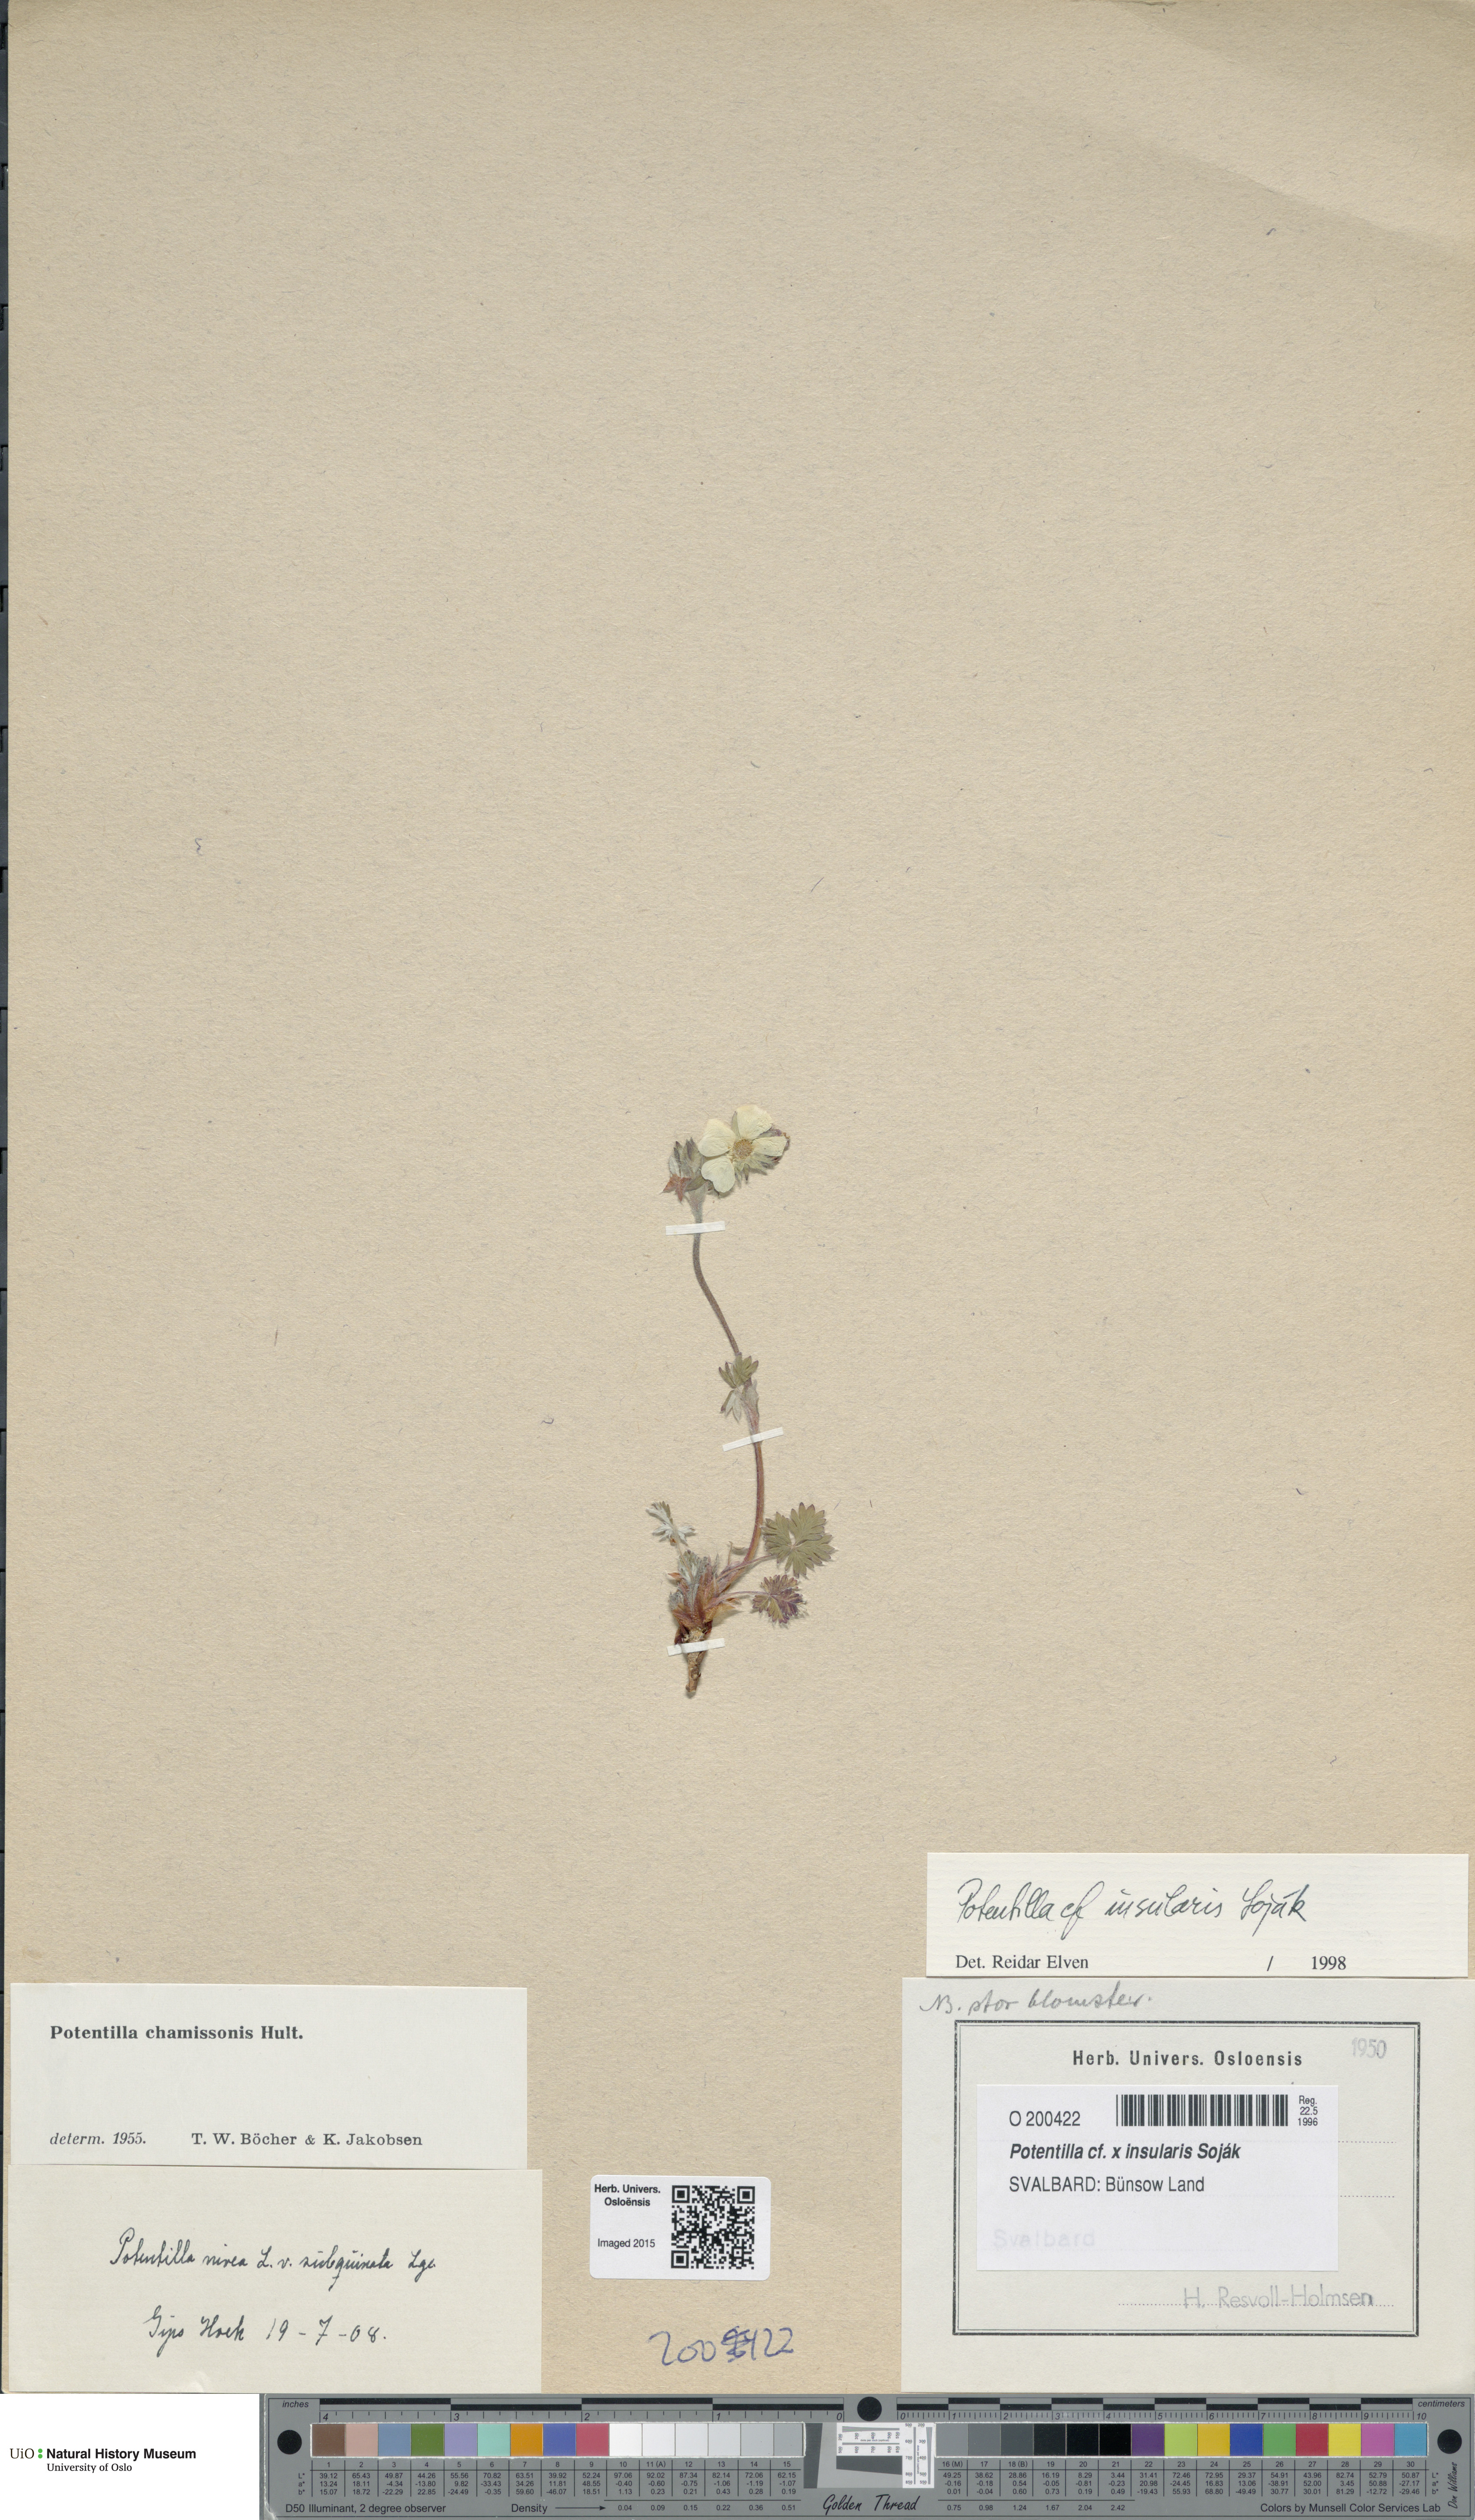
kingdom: Plantae
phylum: Tracheophyta
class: Magnoliopsida
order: Rosales
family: Rosaceae
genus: Potentilla
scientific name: Potentilla insularis
